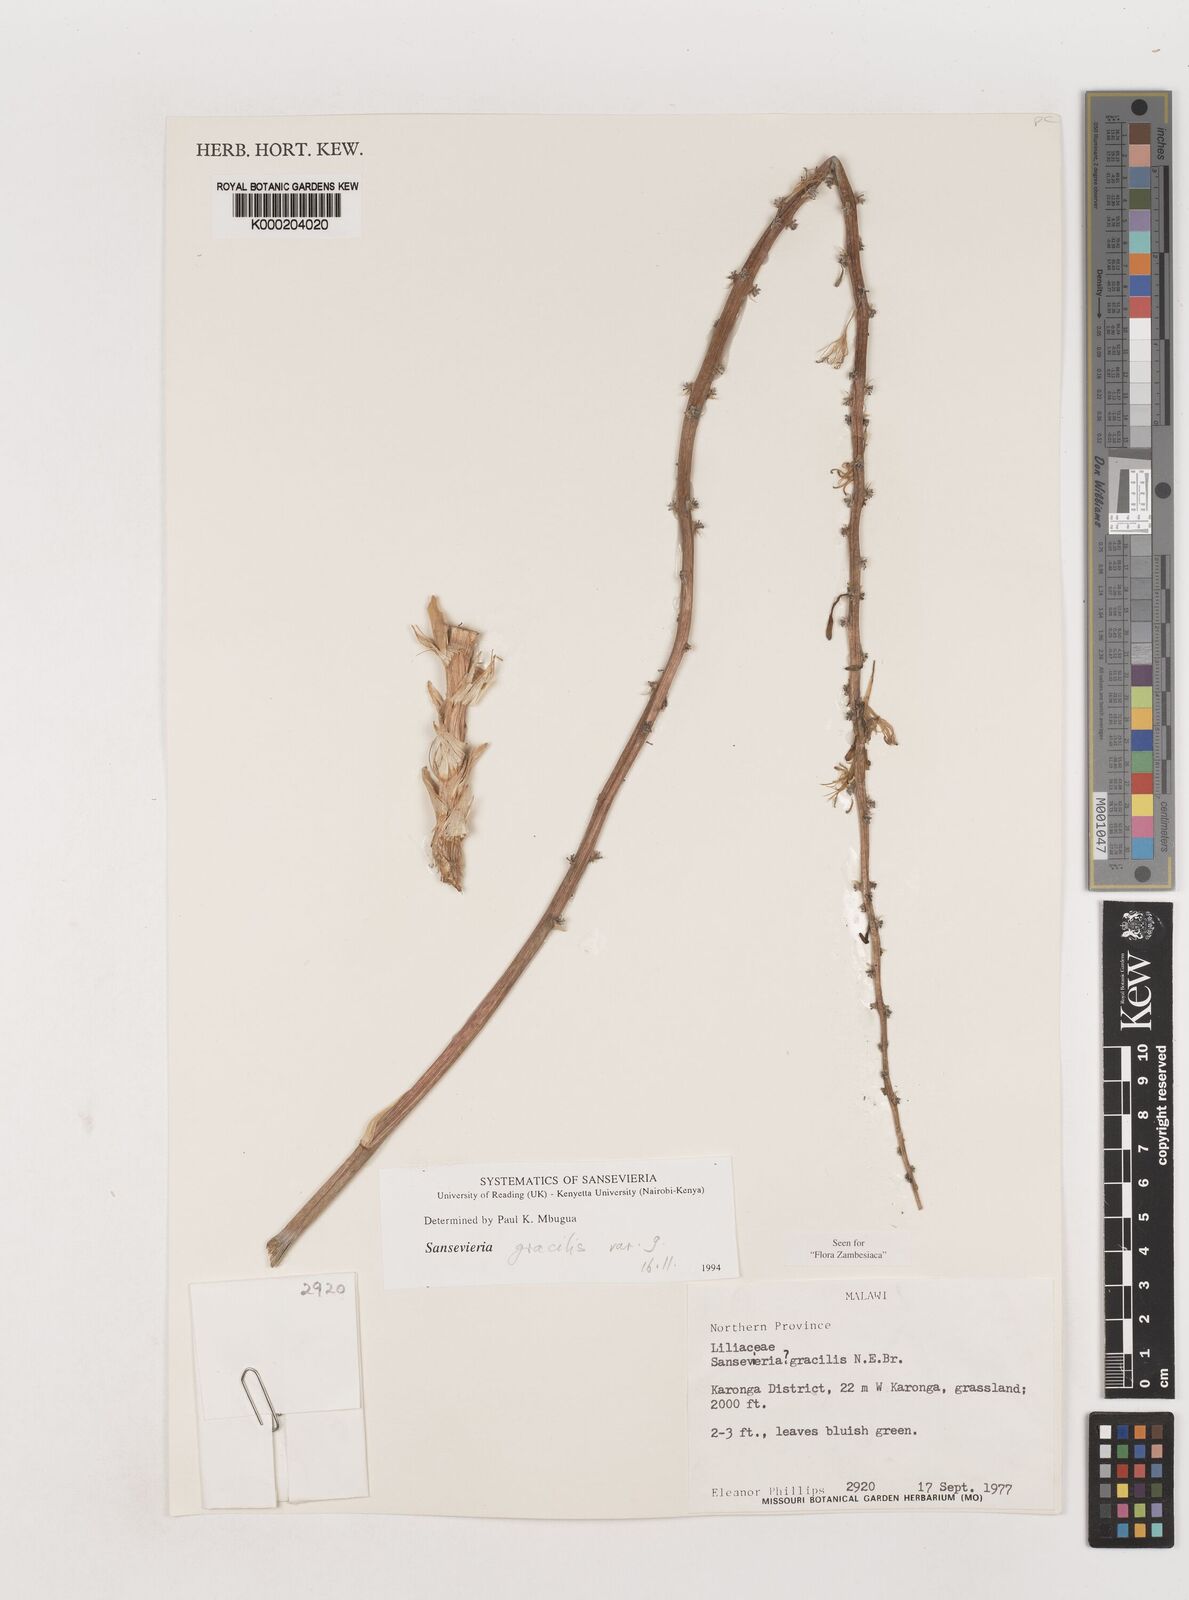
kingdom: Plantae
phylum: Tracheophyta
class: Liliopsida
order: Asparagales
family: Asparagaceae
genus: Dracaena
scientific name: Dracaena downsii
